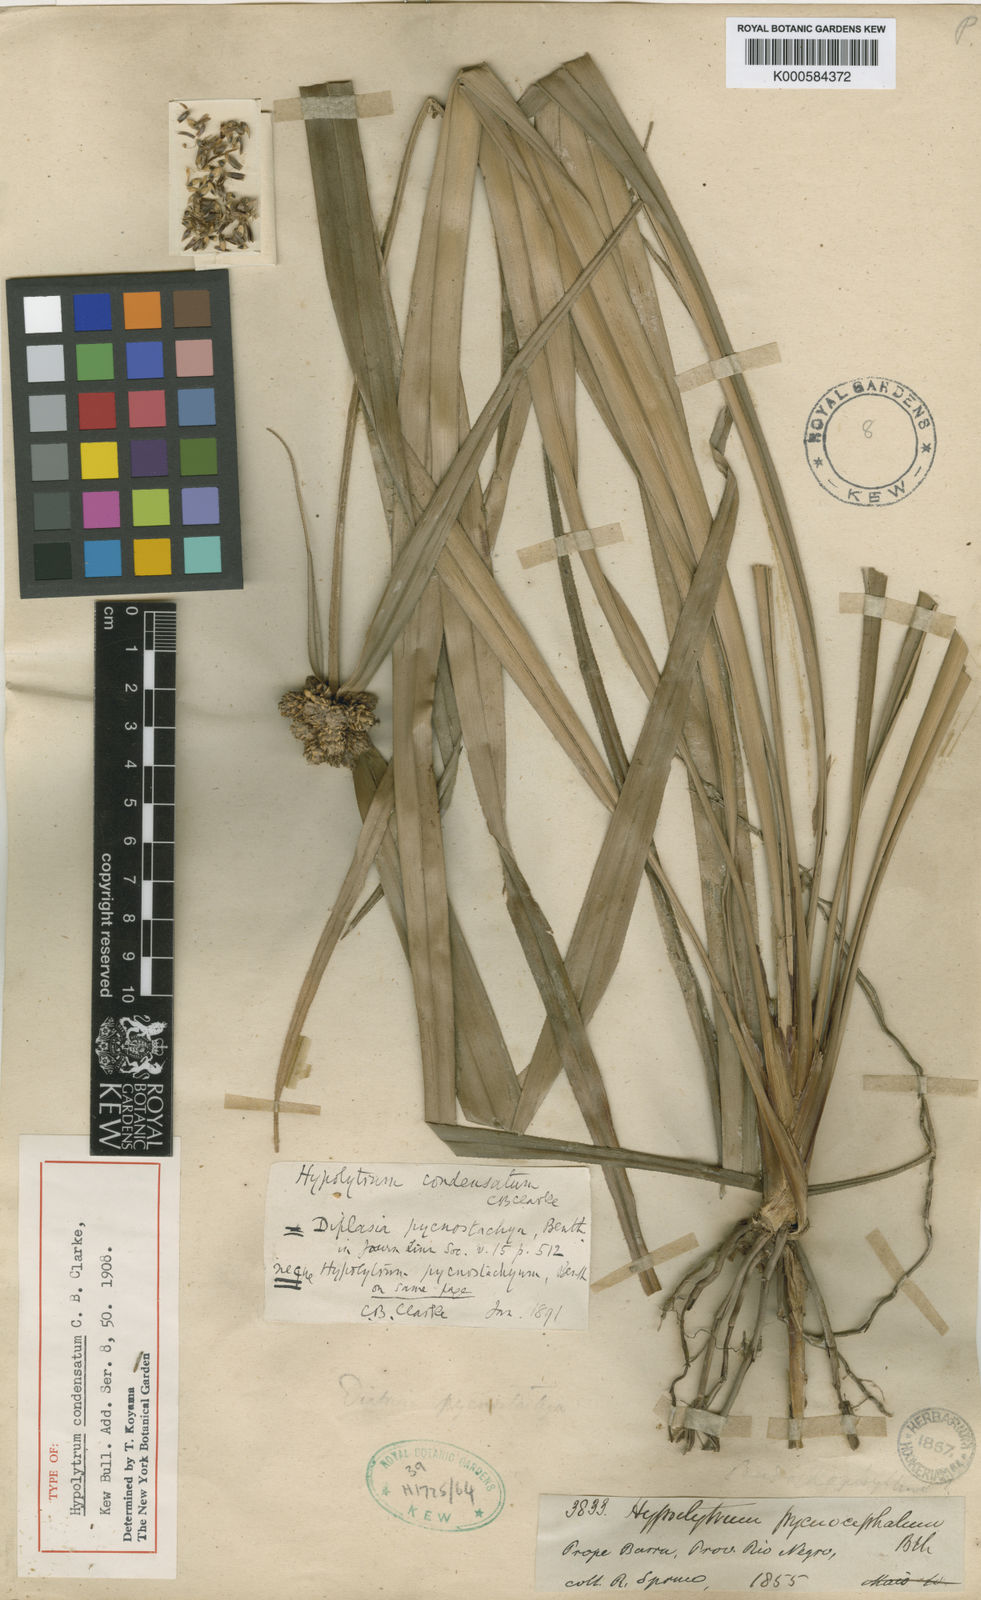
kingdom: Plantae
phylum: Tracheophyta
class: Liliopsida
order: Poales
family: Cyperaceae
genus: Mapania
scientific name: Mapania pycnostachya
